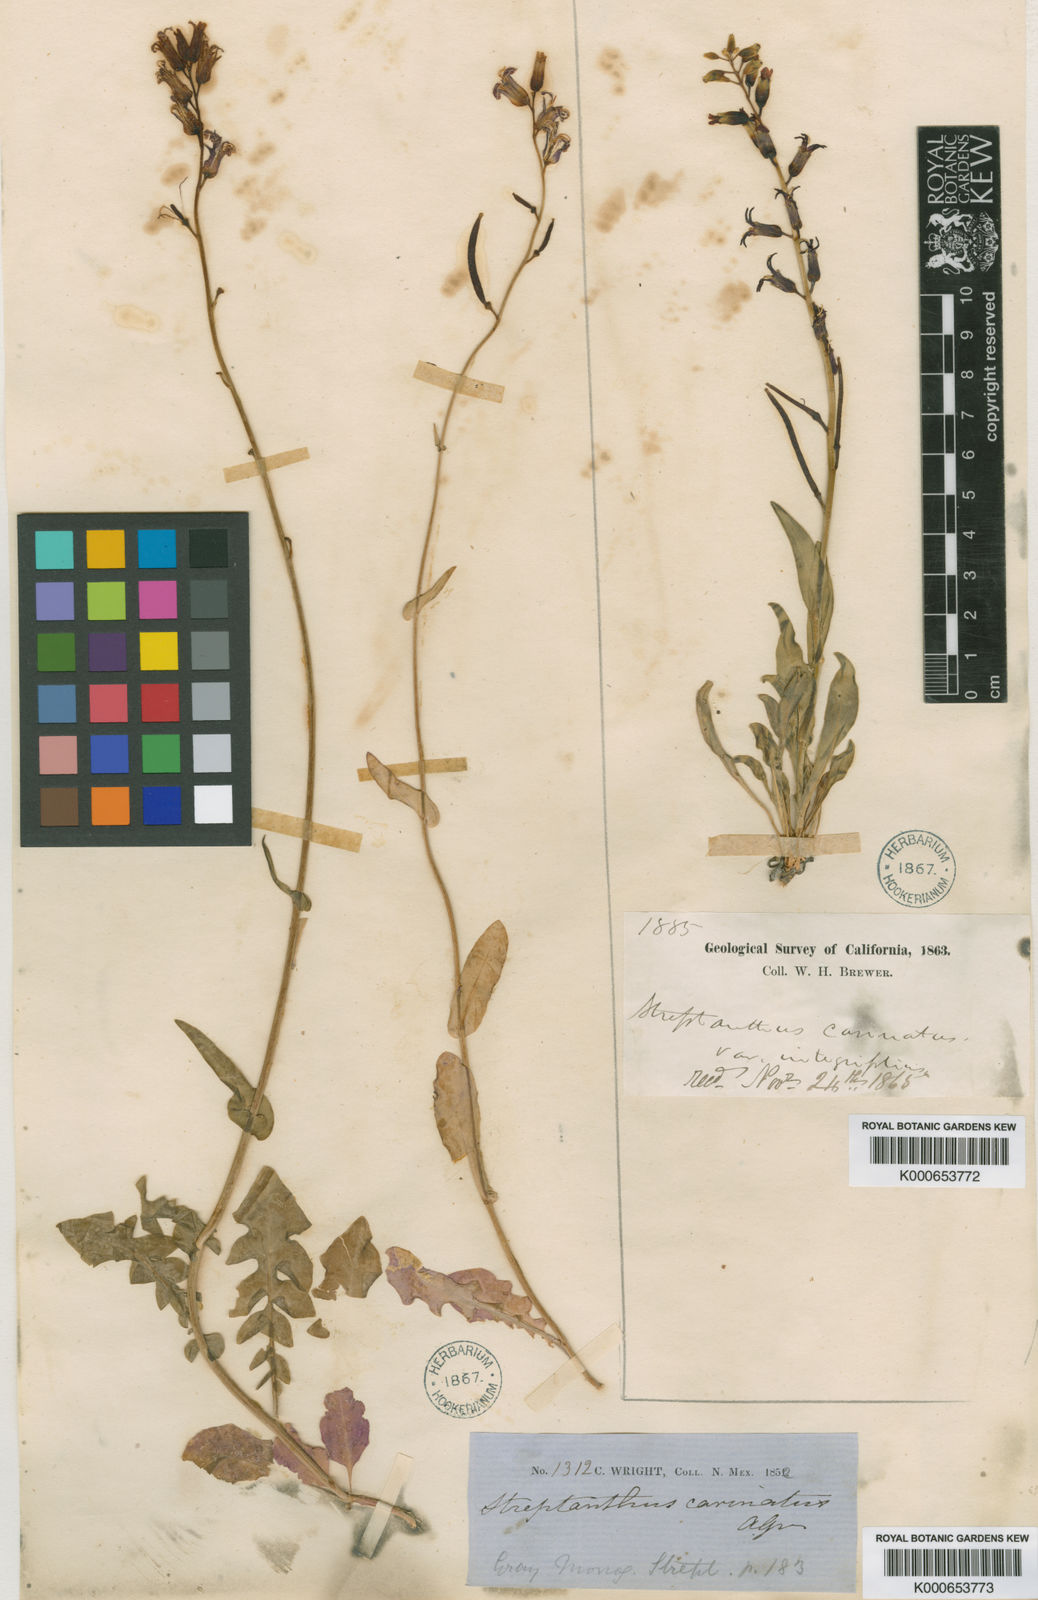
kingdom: Plantae
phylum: Tracheophyta
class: Magnoliopsida
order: Brassicales
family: Brassicaceae
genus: Streptanthus
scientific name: Streptanthus carinatus
